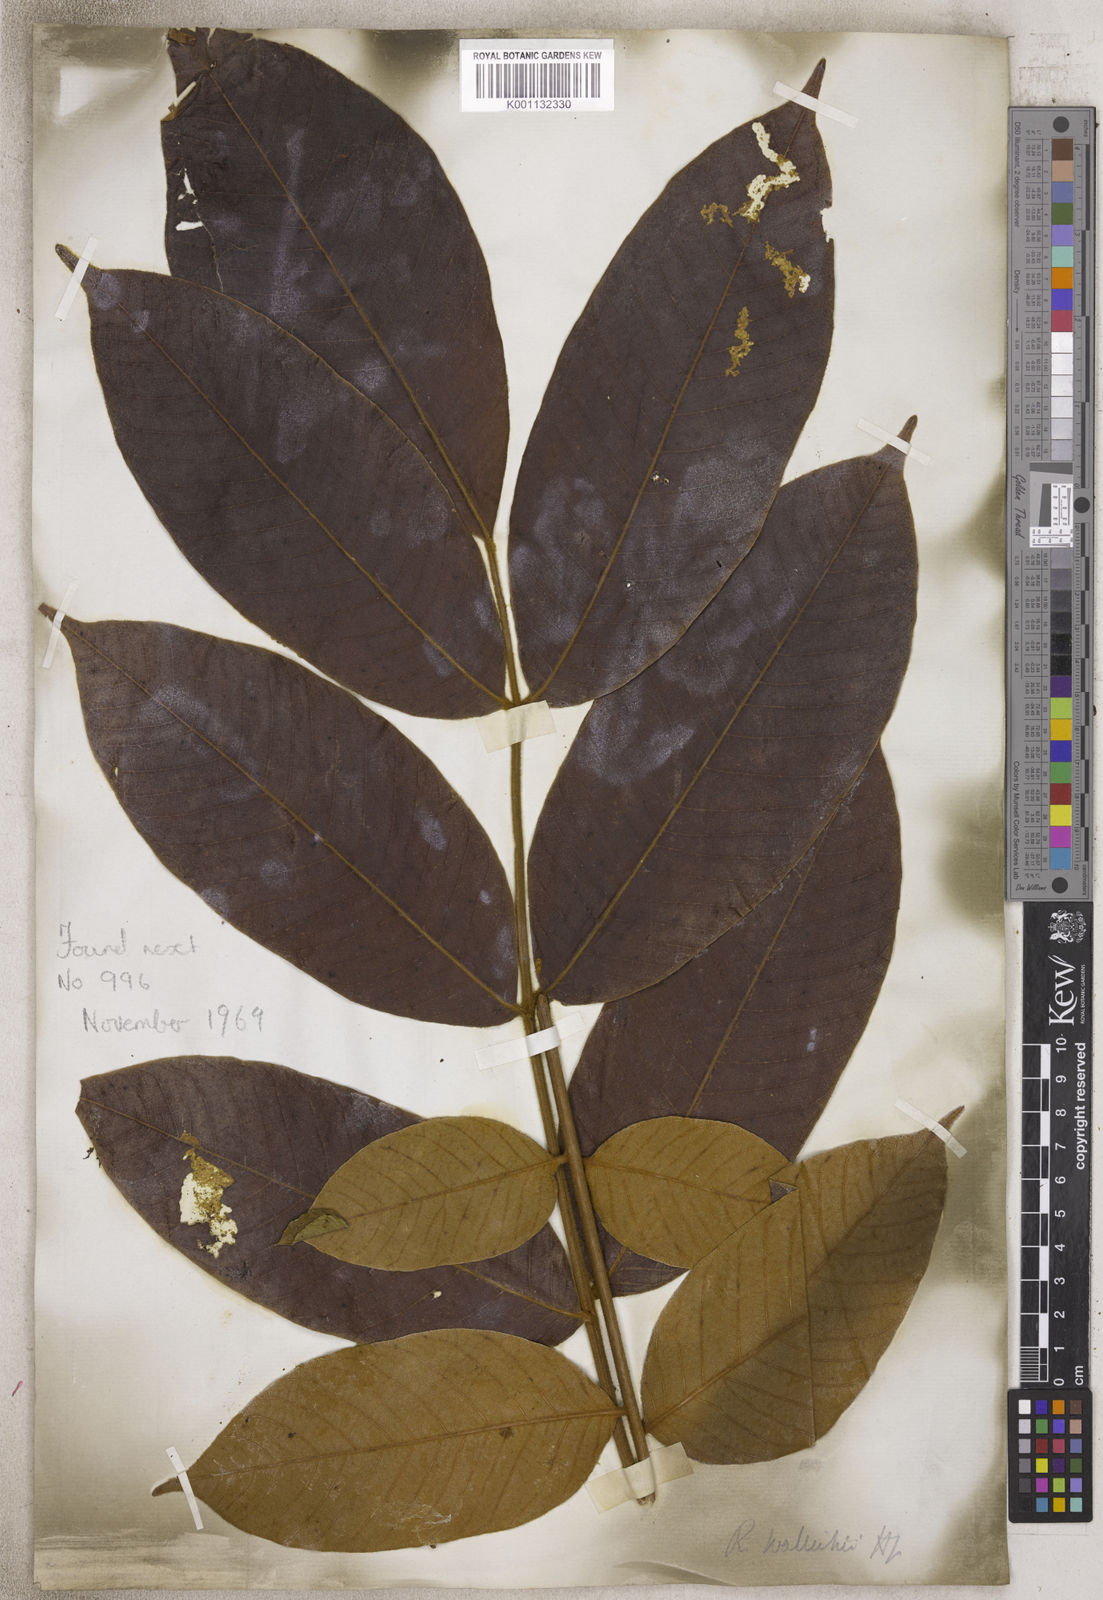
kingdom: Plantae
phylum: Tracheophyta
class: Magnoliopsida
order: Sapindales
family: Anacardiaceae
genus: Rhus
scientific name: Rhus
